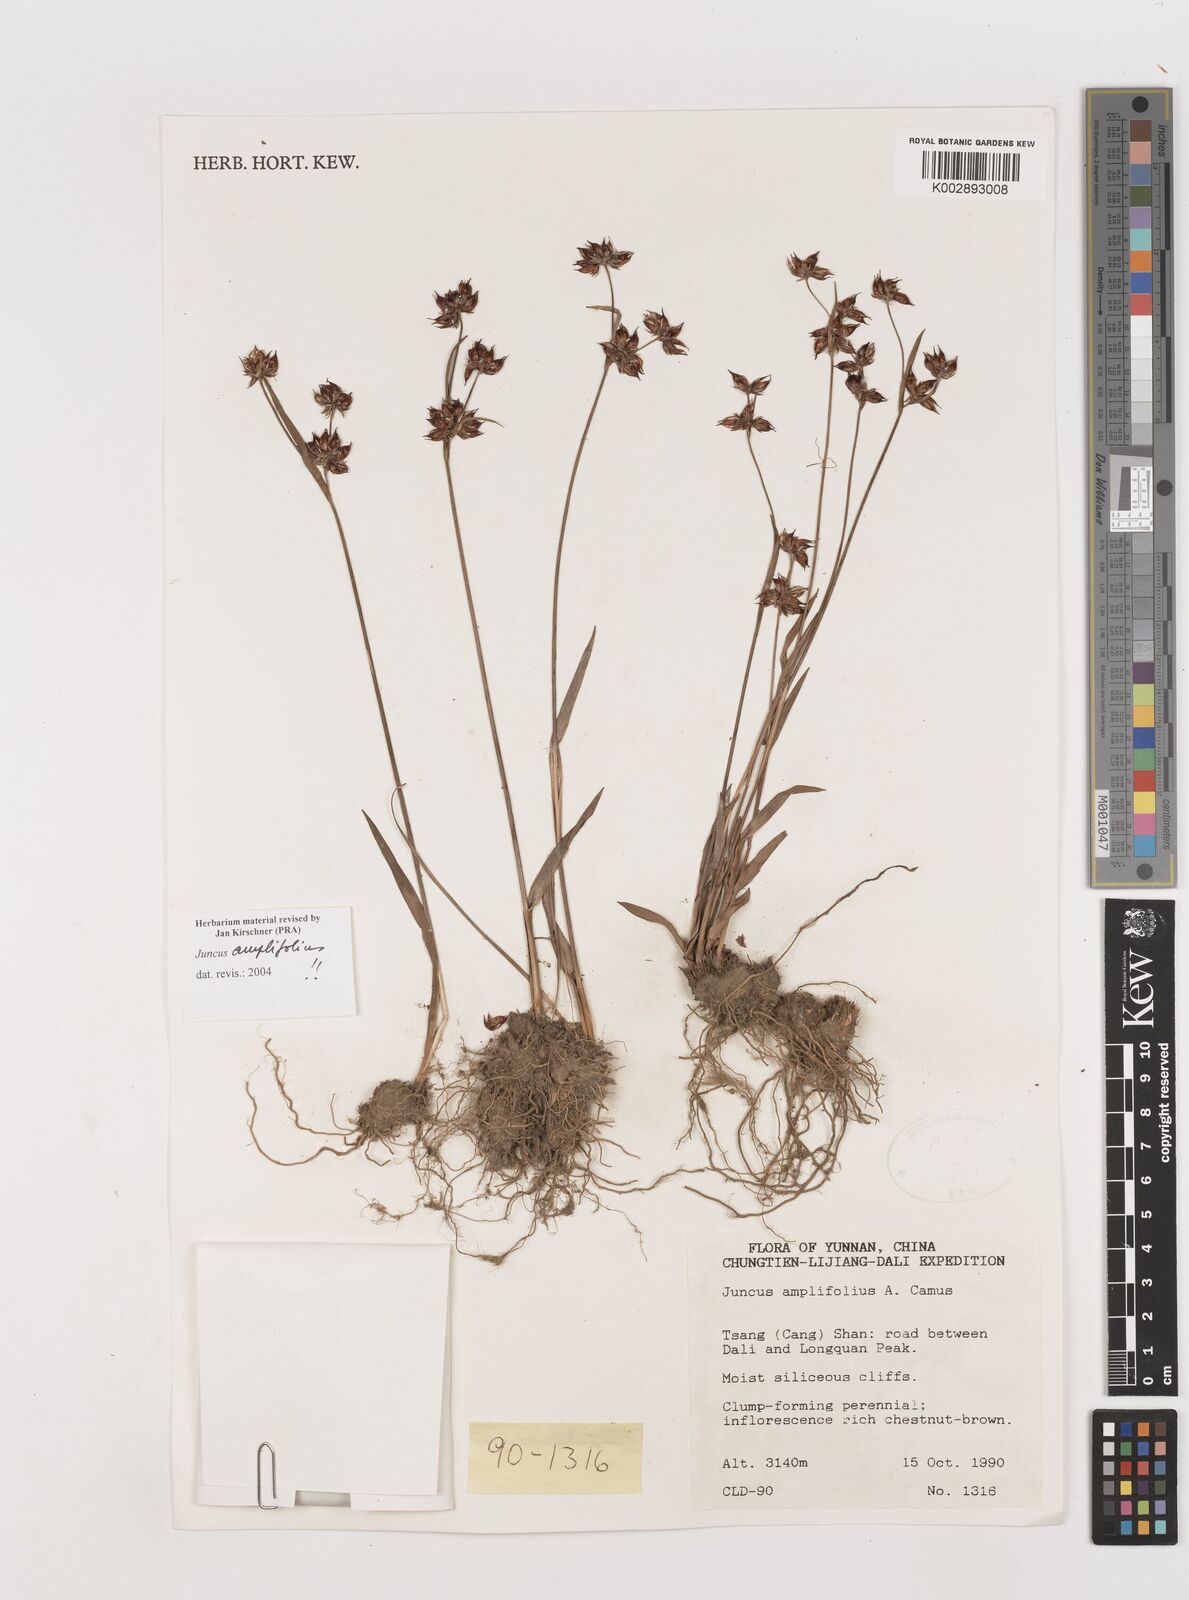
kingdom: Plantae
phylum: Tracheophyta
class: Liliopsida
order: Poales
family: Juncaceae
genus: Juncus
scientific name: Juncus amplifolius
